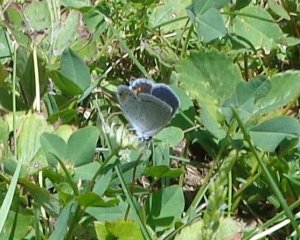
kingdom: Animalia
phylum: Arthropoda
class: Insecta
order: Lepidoptera
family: Lycaenidae
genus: Elkalyce
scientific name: Elkalyce comyntas
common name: Eastern Tailed-Blue
